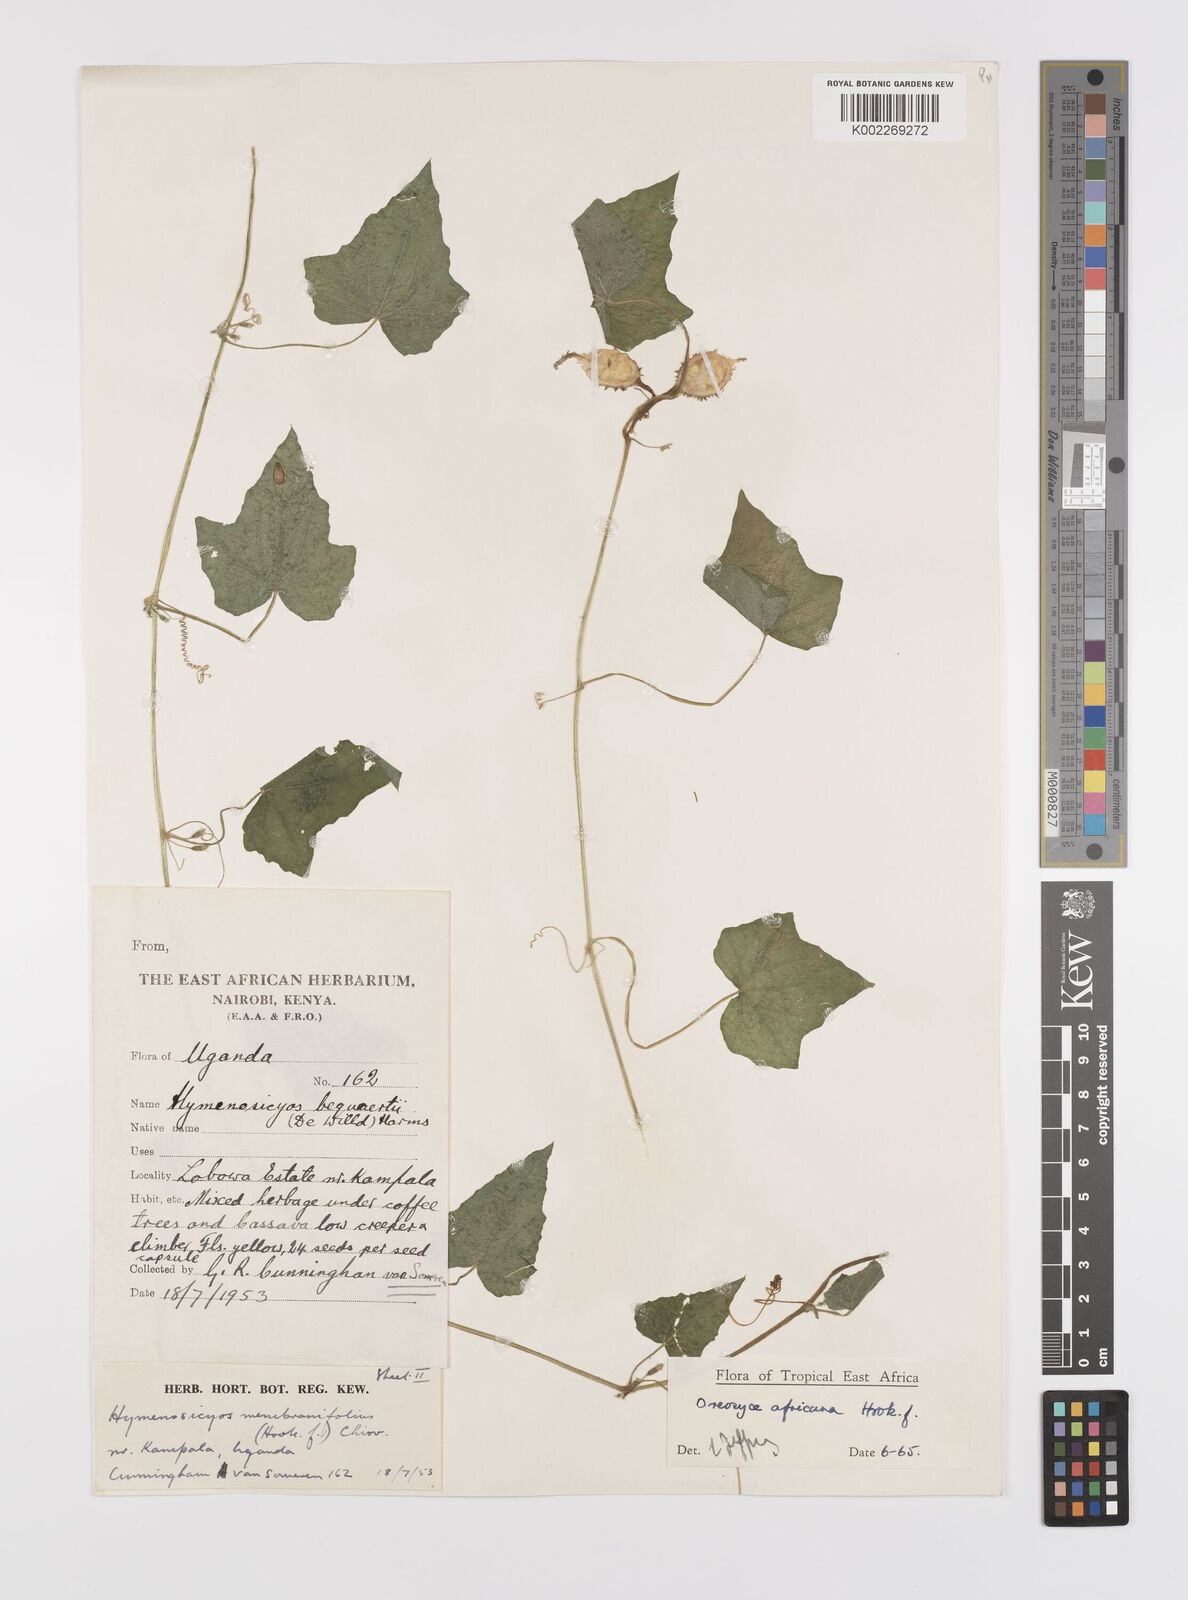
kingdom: Plantae
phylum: Tracheophyta
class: Magnoliopsida
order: Cucurbitales
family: Cucurbitaceae
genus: Cucumis
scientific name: Cucumis oreosyce
